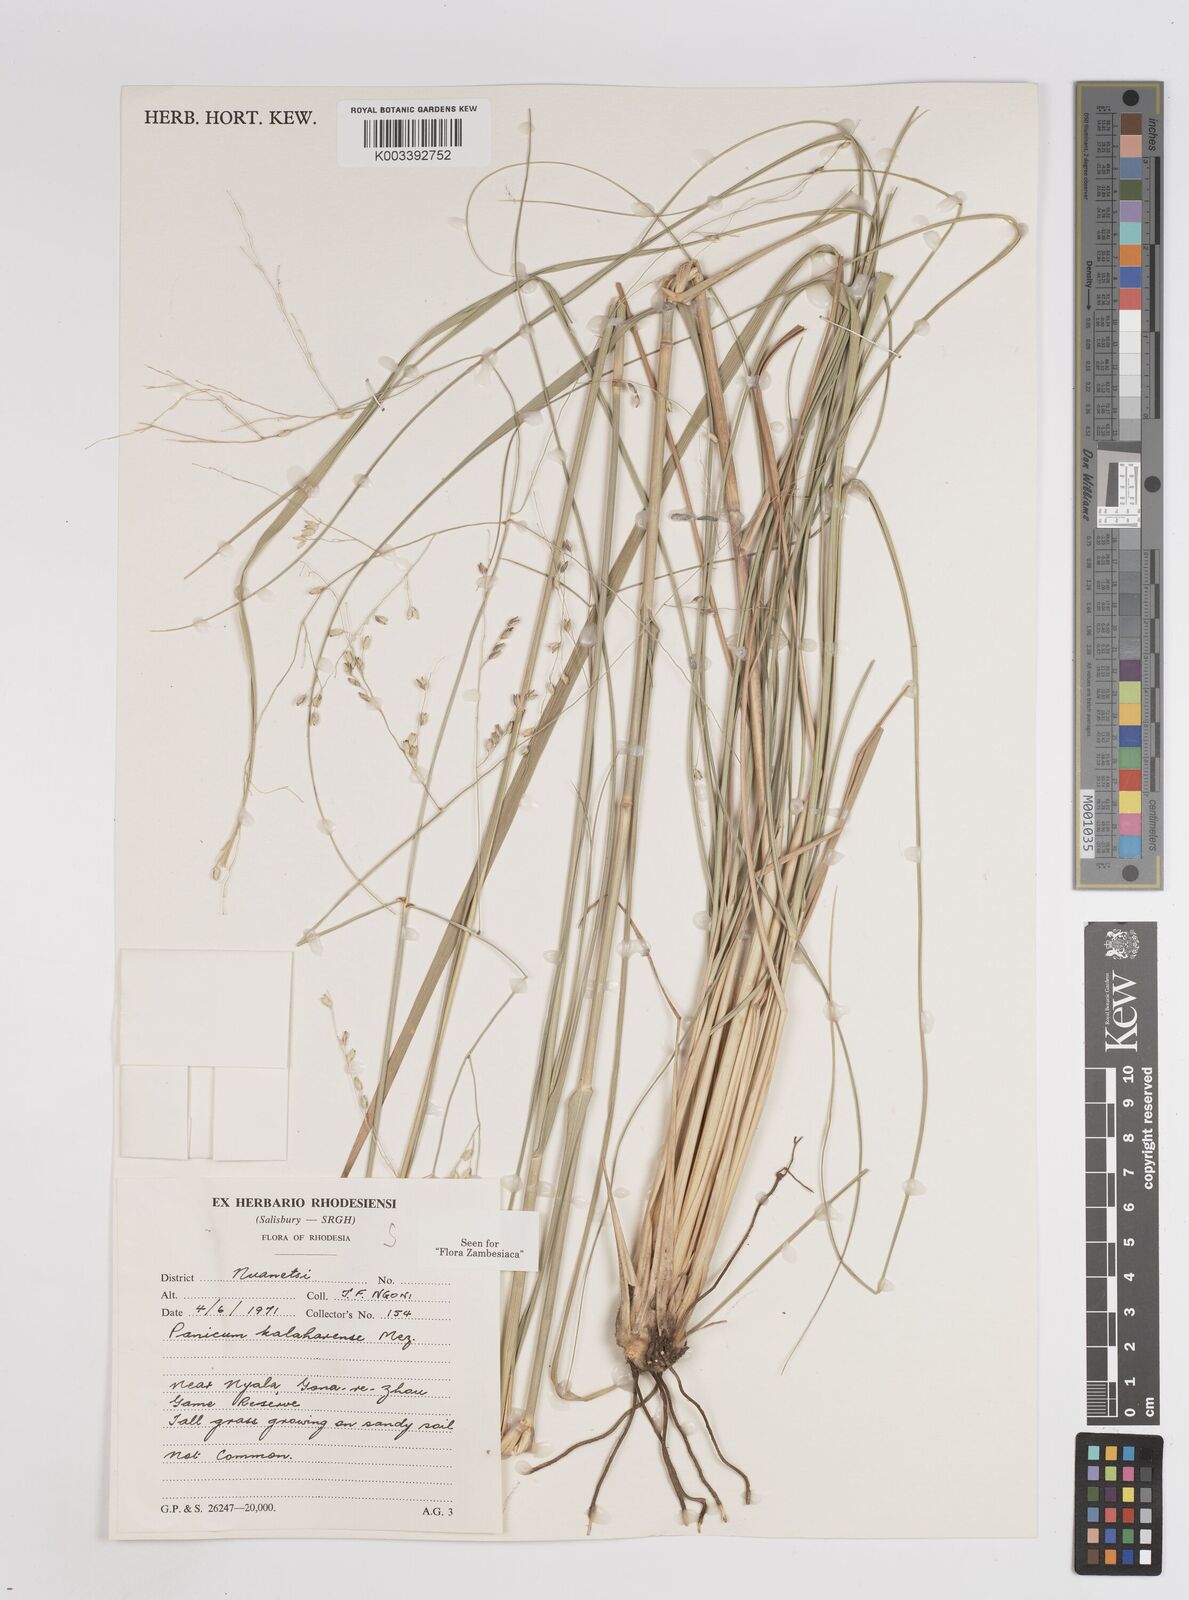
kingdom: Plantae
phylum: Tracheophyta
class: Liliopsida
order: Poales
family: Poaceae
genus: Panicum
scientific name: Panicum kalaharense
